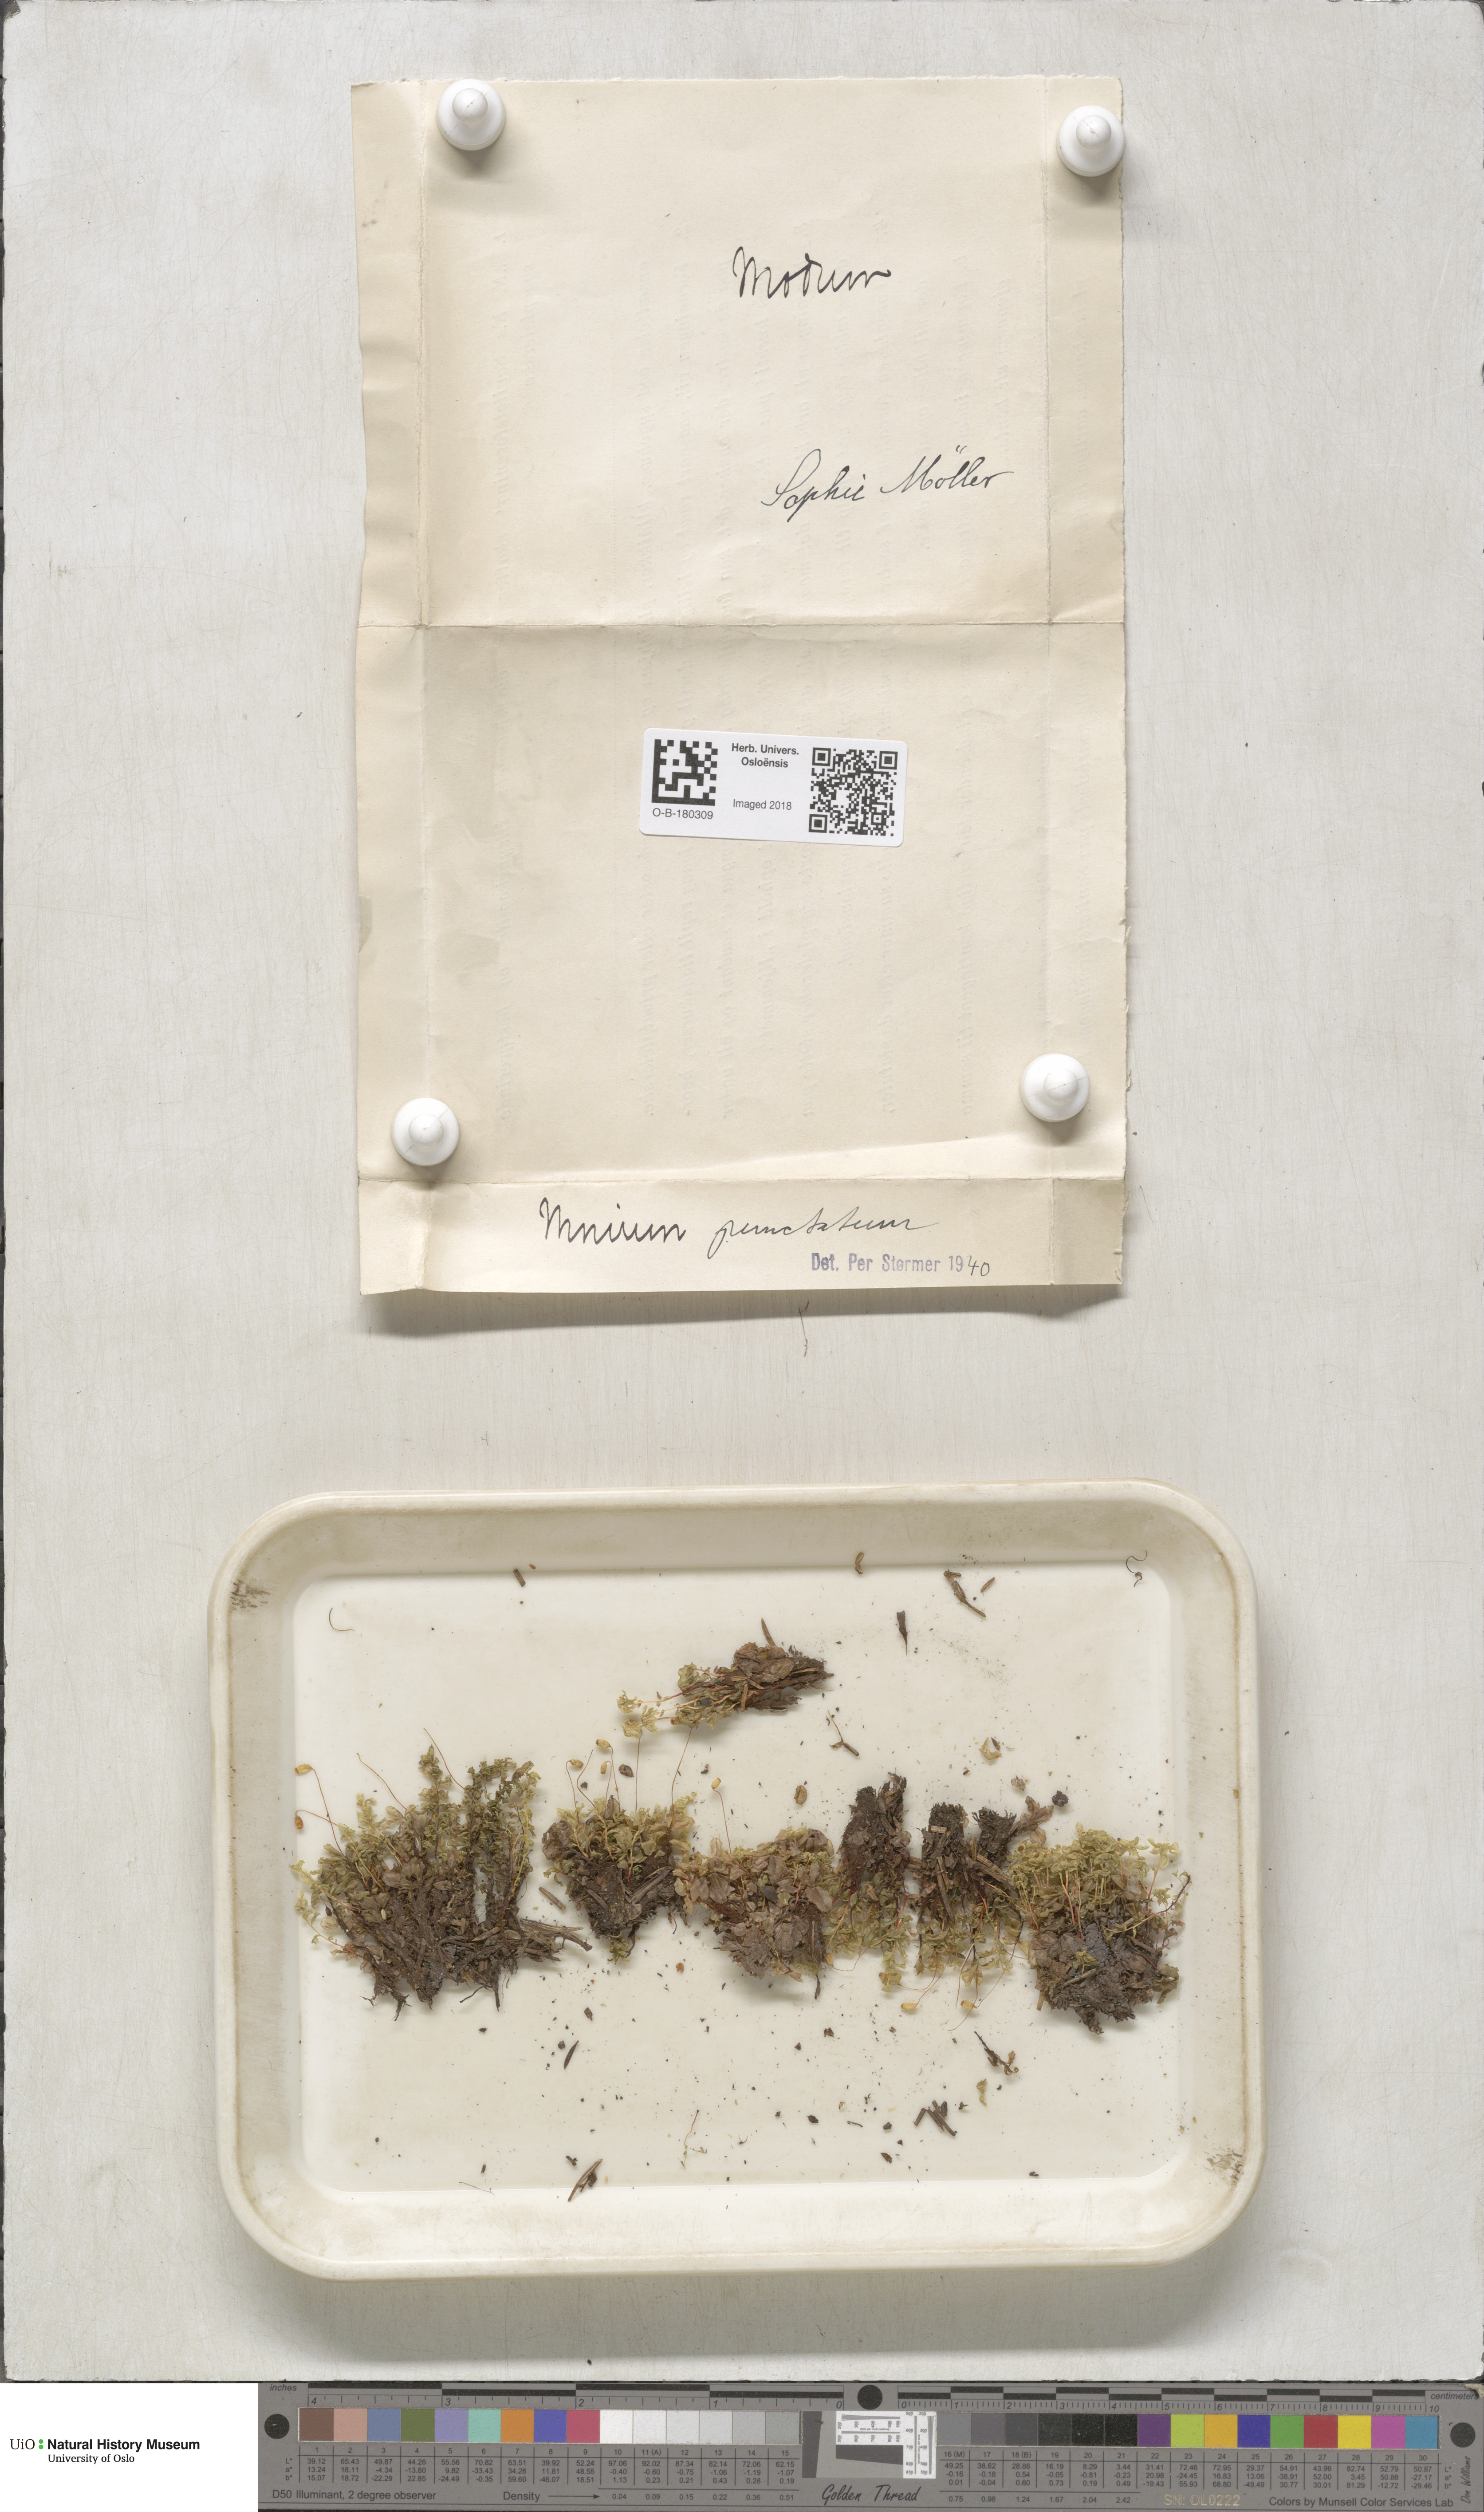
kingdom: Plantae
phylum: Bryophyta
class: Bryopsida
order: Bryales
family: Mniaceae
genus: Rhizomnium
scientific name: Rhizomnium punctatum
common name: Dotted leafy moss
